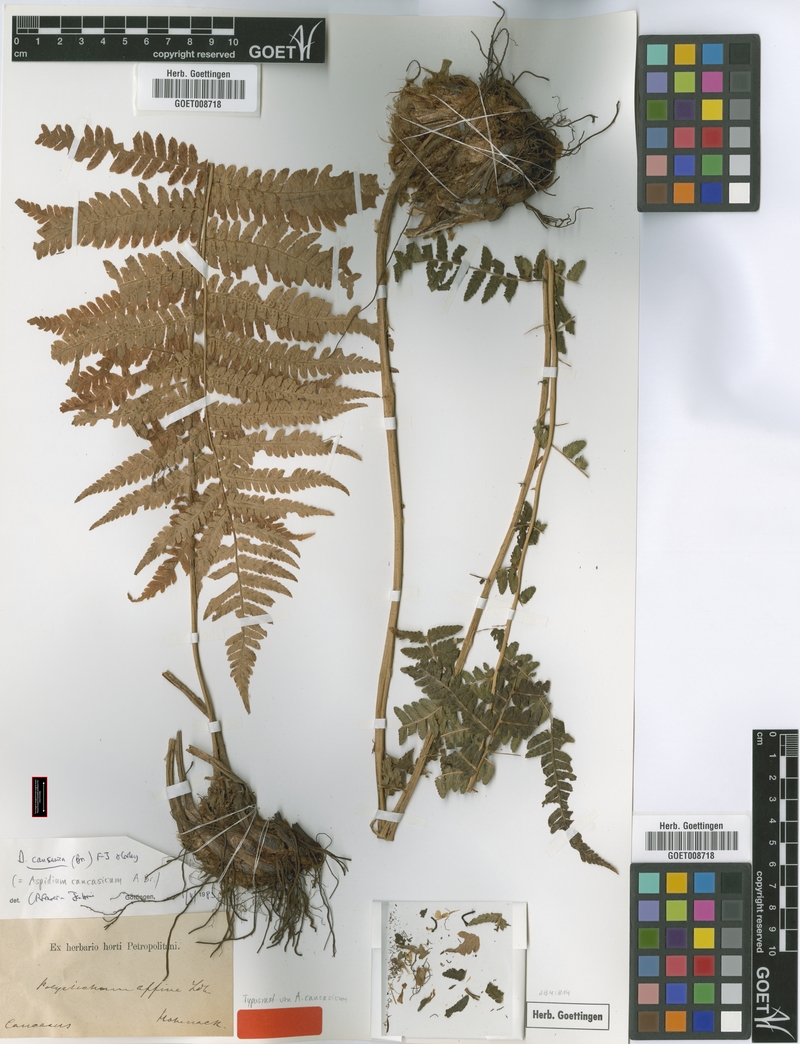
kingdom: Plantae
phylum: Tracheophyta
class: Polypodiopsida
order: Polypodiales
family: Dryopteridaceae
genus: Dryopteris
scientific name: Dryopteris caucasica
